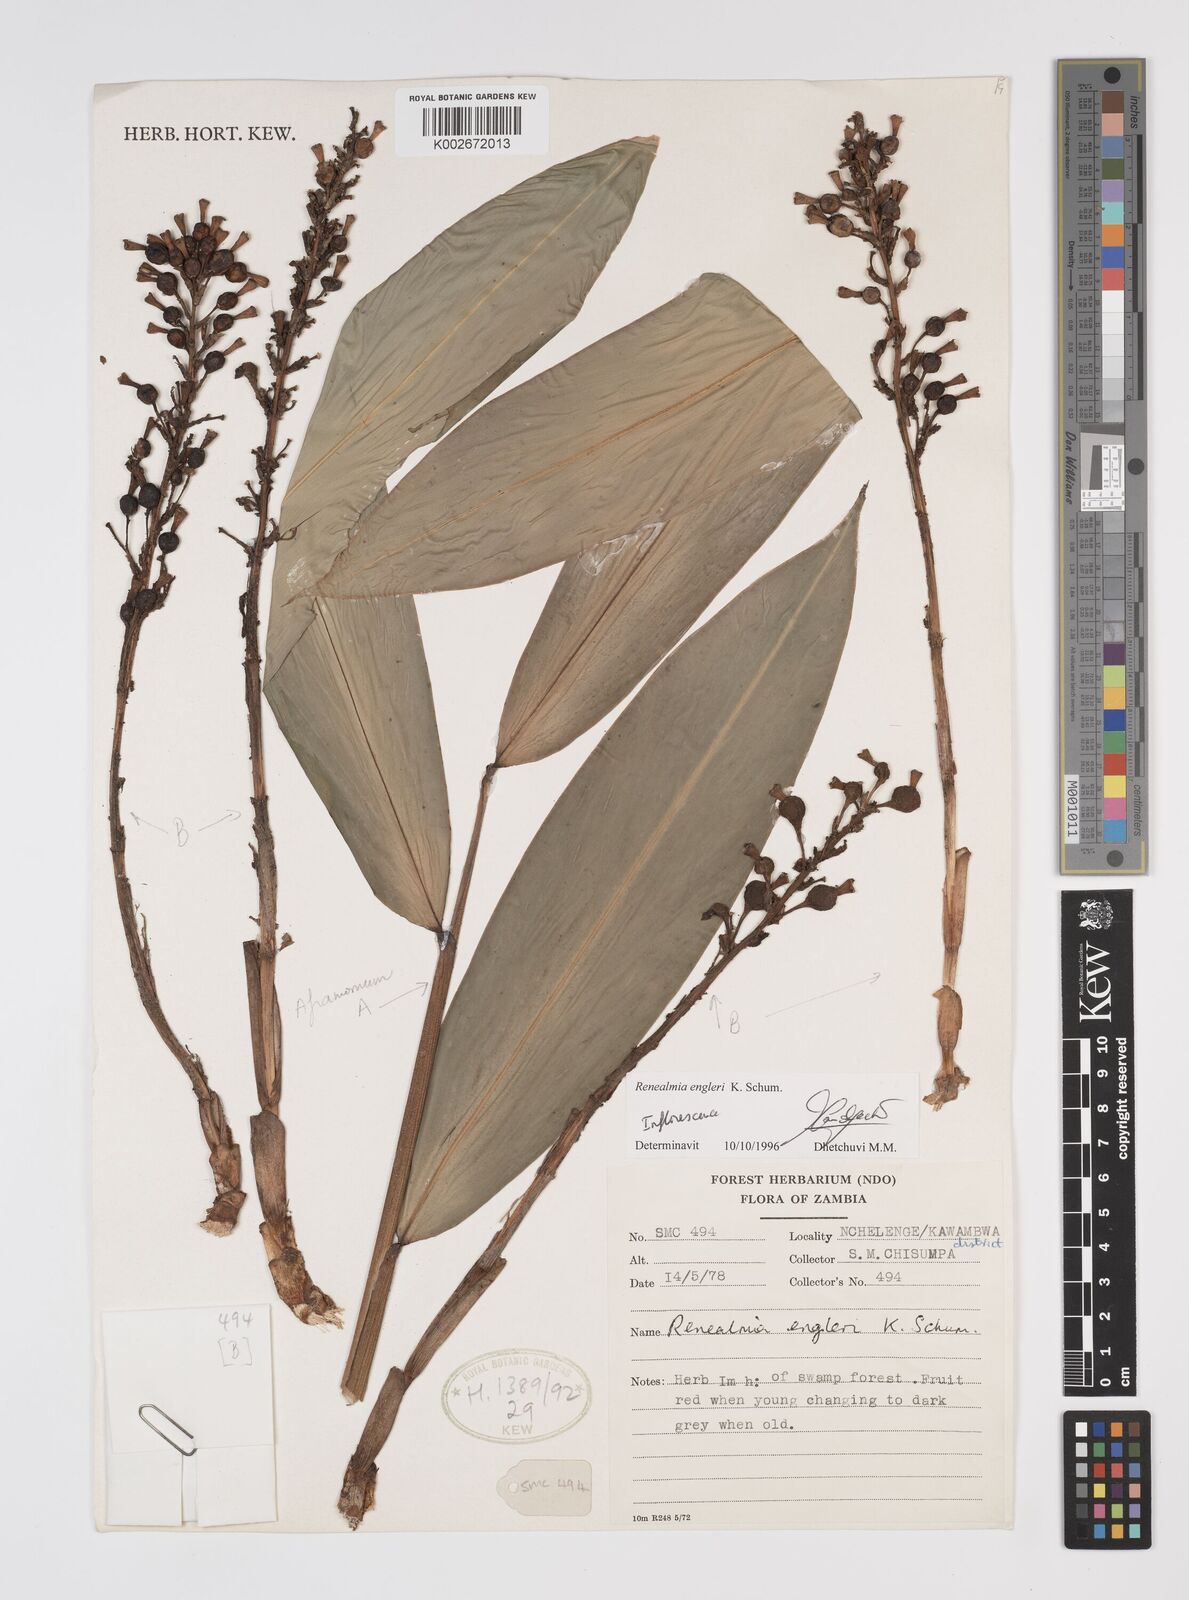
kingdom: Plantae
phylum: Tracheophyta
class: Liliopsida
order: Zingiberales
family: Zingiberaceae
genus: Renealmia
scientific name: Renealmia engleri
